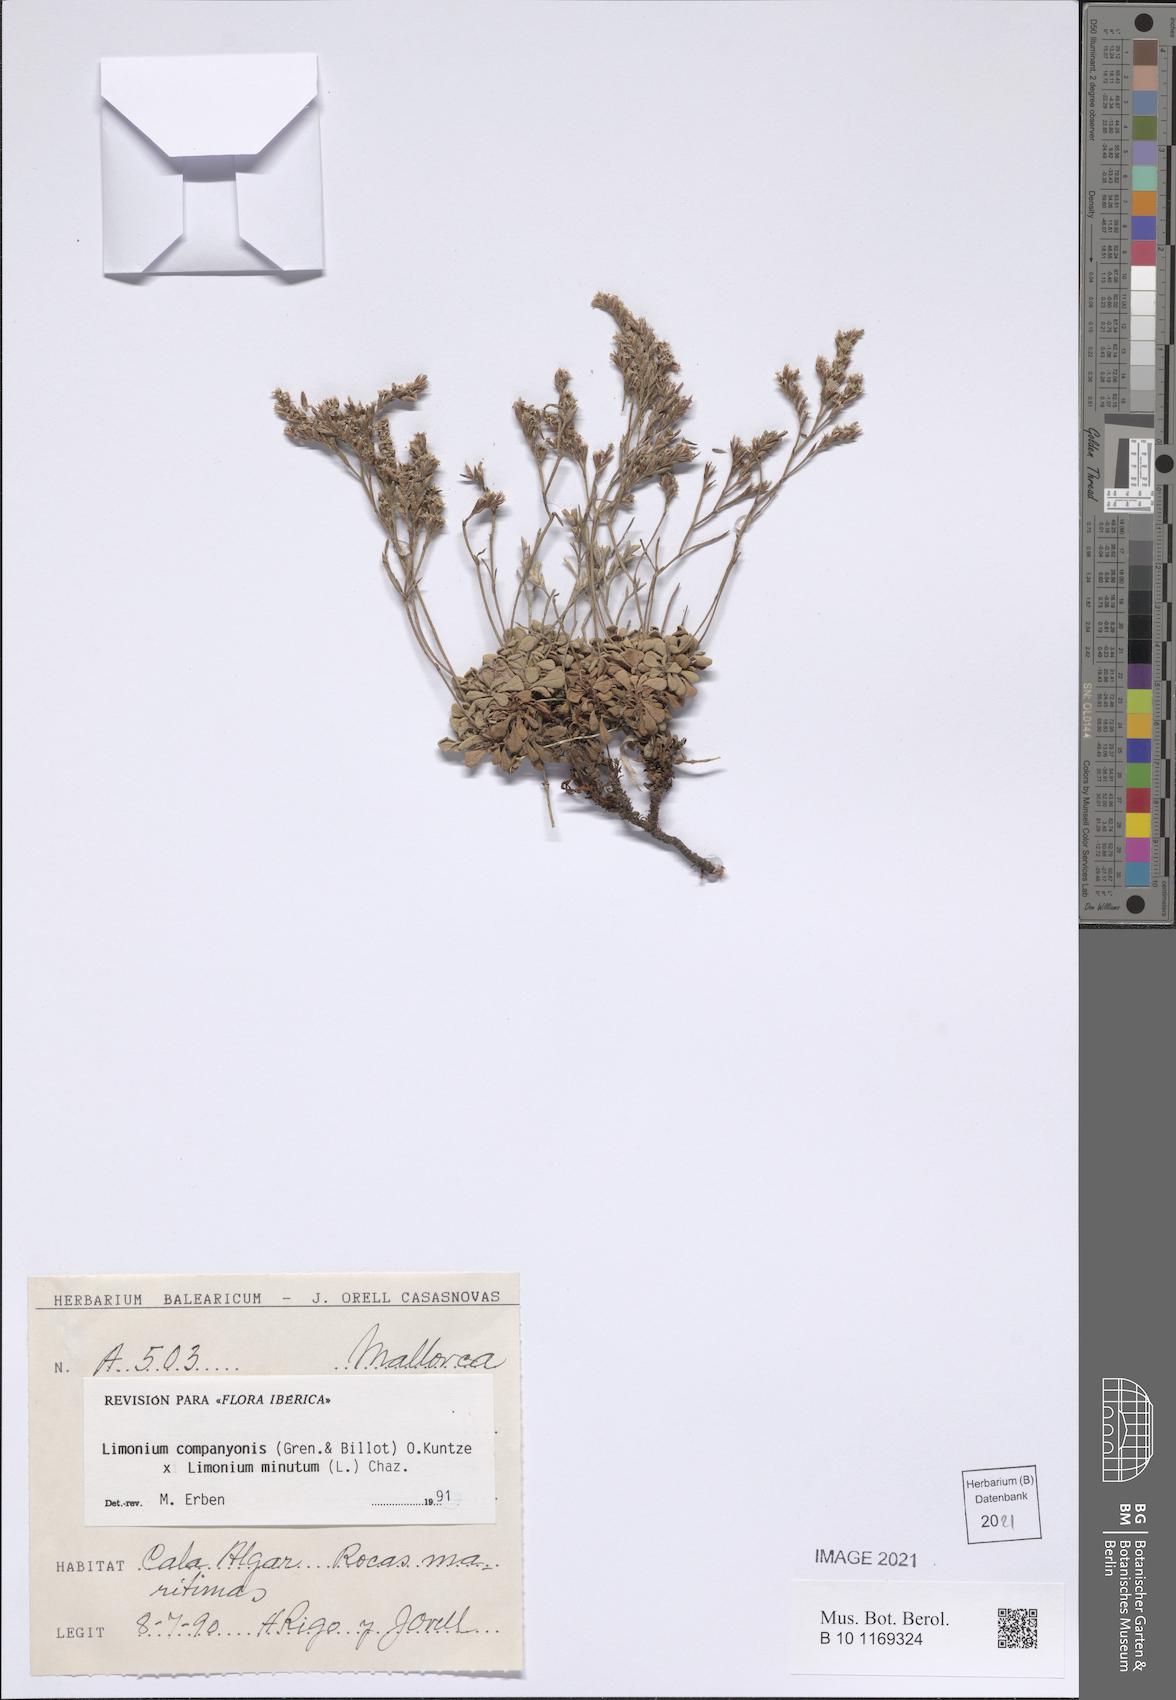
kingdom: Plantae
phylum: Tracheophyta
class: Magnoliopsida
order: Caryophyllales
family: Plumbaginaceae
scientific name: Plumbaginaceae
